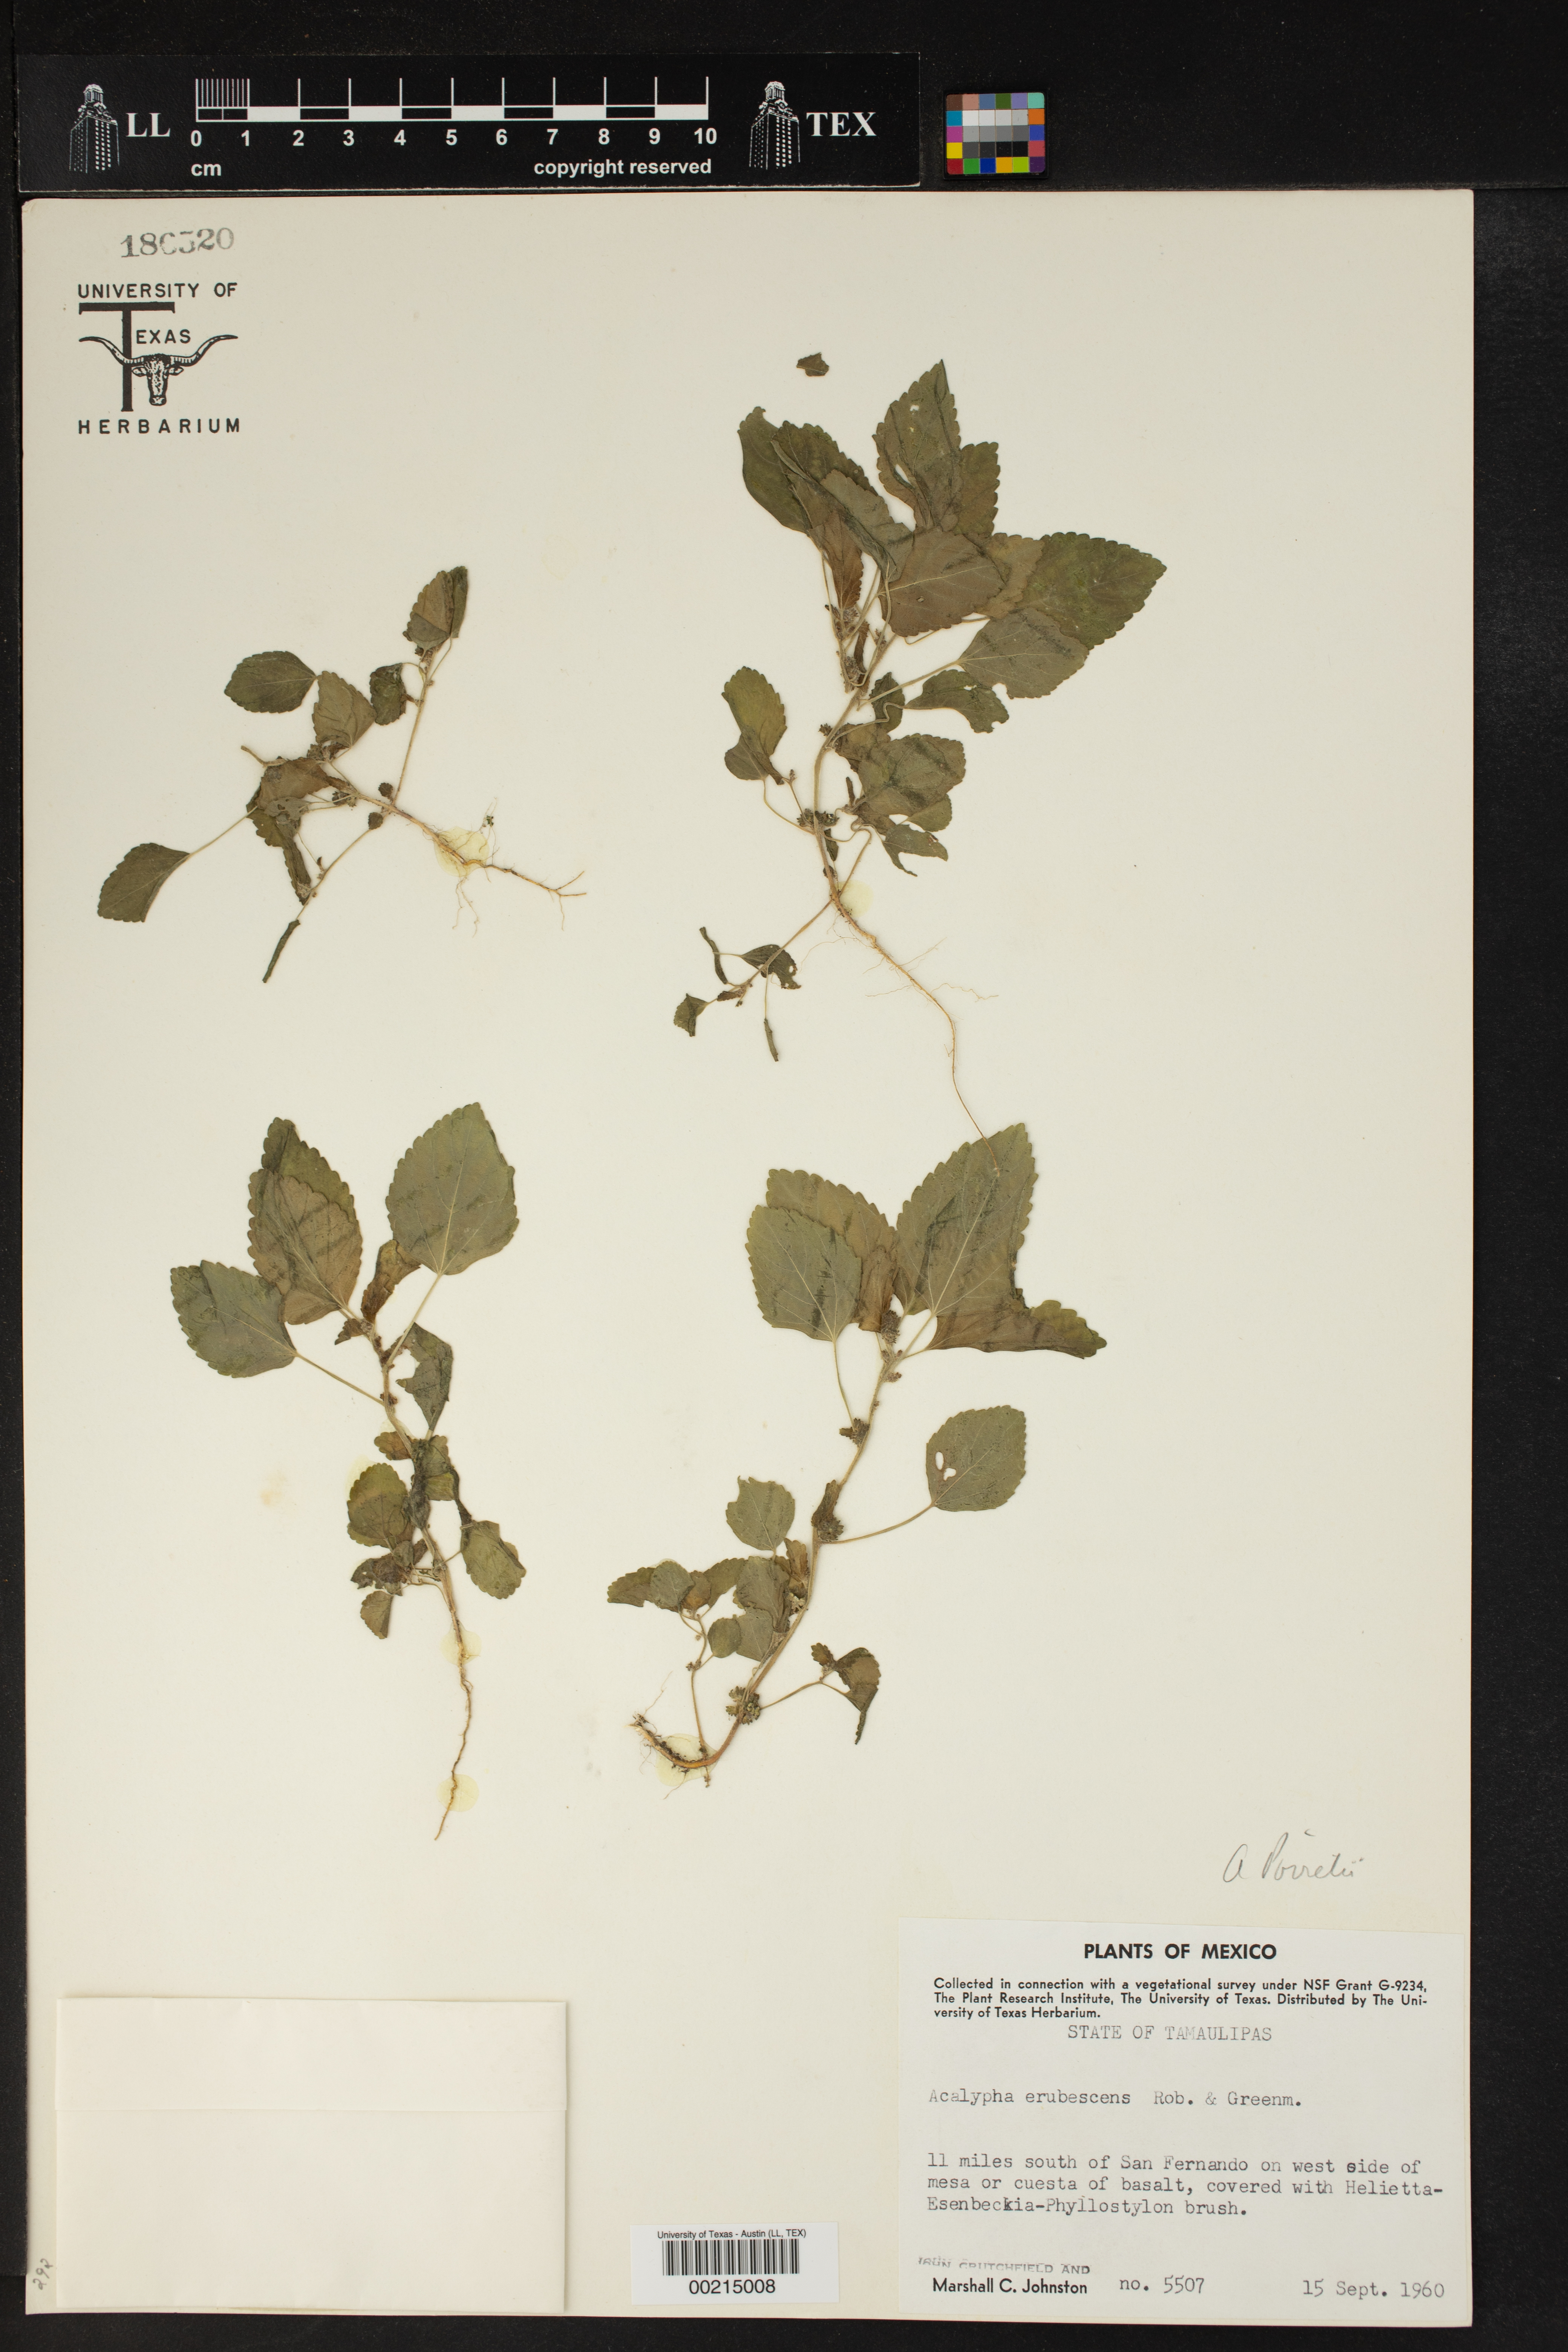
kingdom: Plantae
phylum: Tracheophyta
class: Magnoliopsida
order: Malpighiales
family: Euphorbiaceae
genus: Acalypha
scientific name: Acalypha poiretii
